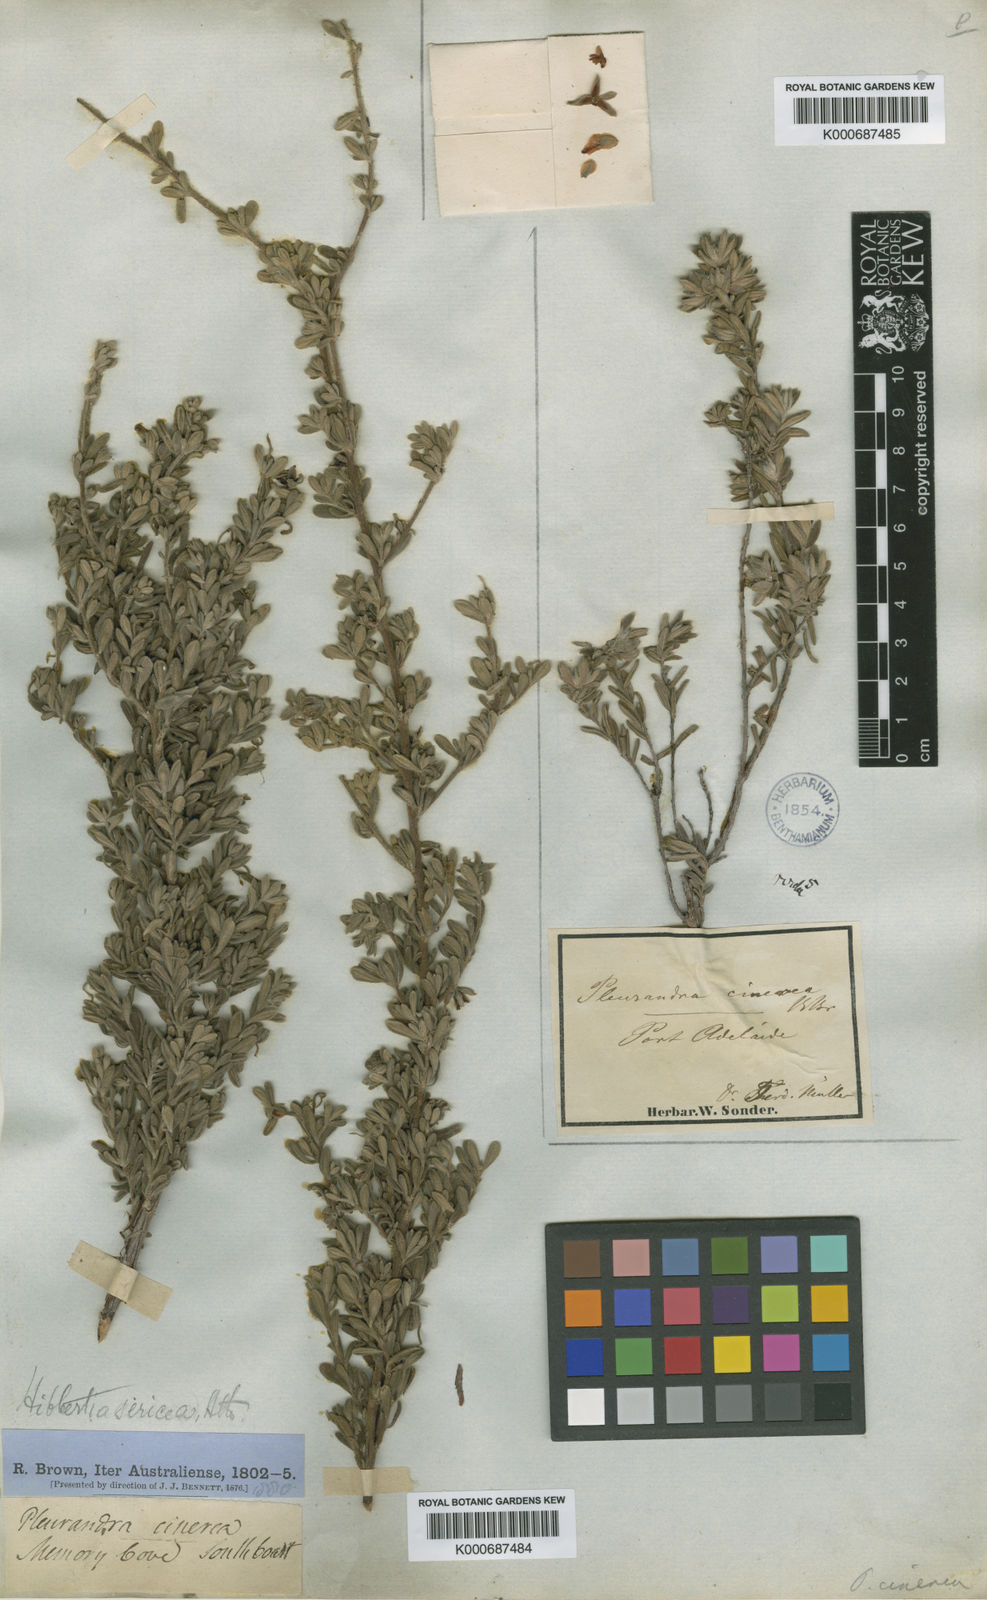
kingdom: Plantae
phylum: Tracheophyta
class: Magnoliopsida
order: Dilleniales
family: Dilleniaceae
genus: Hibbertia
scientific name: Hibbertia sericea
